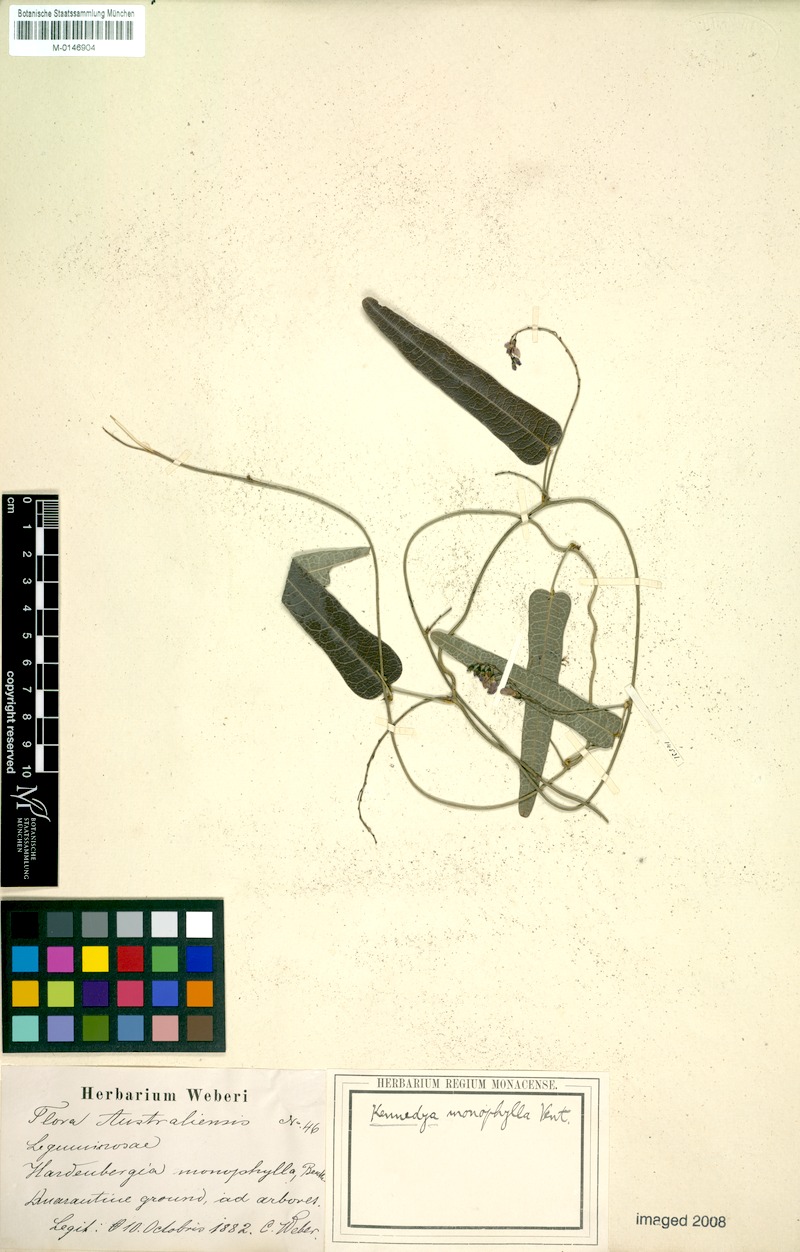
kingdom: Plantae
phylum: Tracheophyta
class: Magnoliopsida
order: Fabales
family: Fabaceae
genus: Hardenbergia
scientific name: Hardenbergia violacea
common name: Coral-pea
